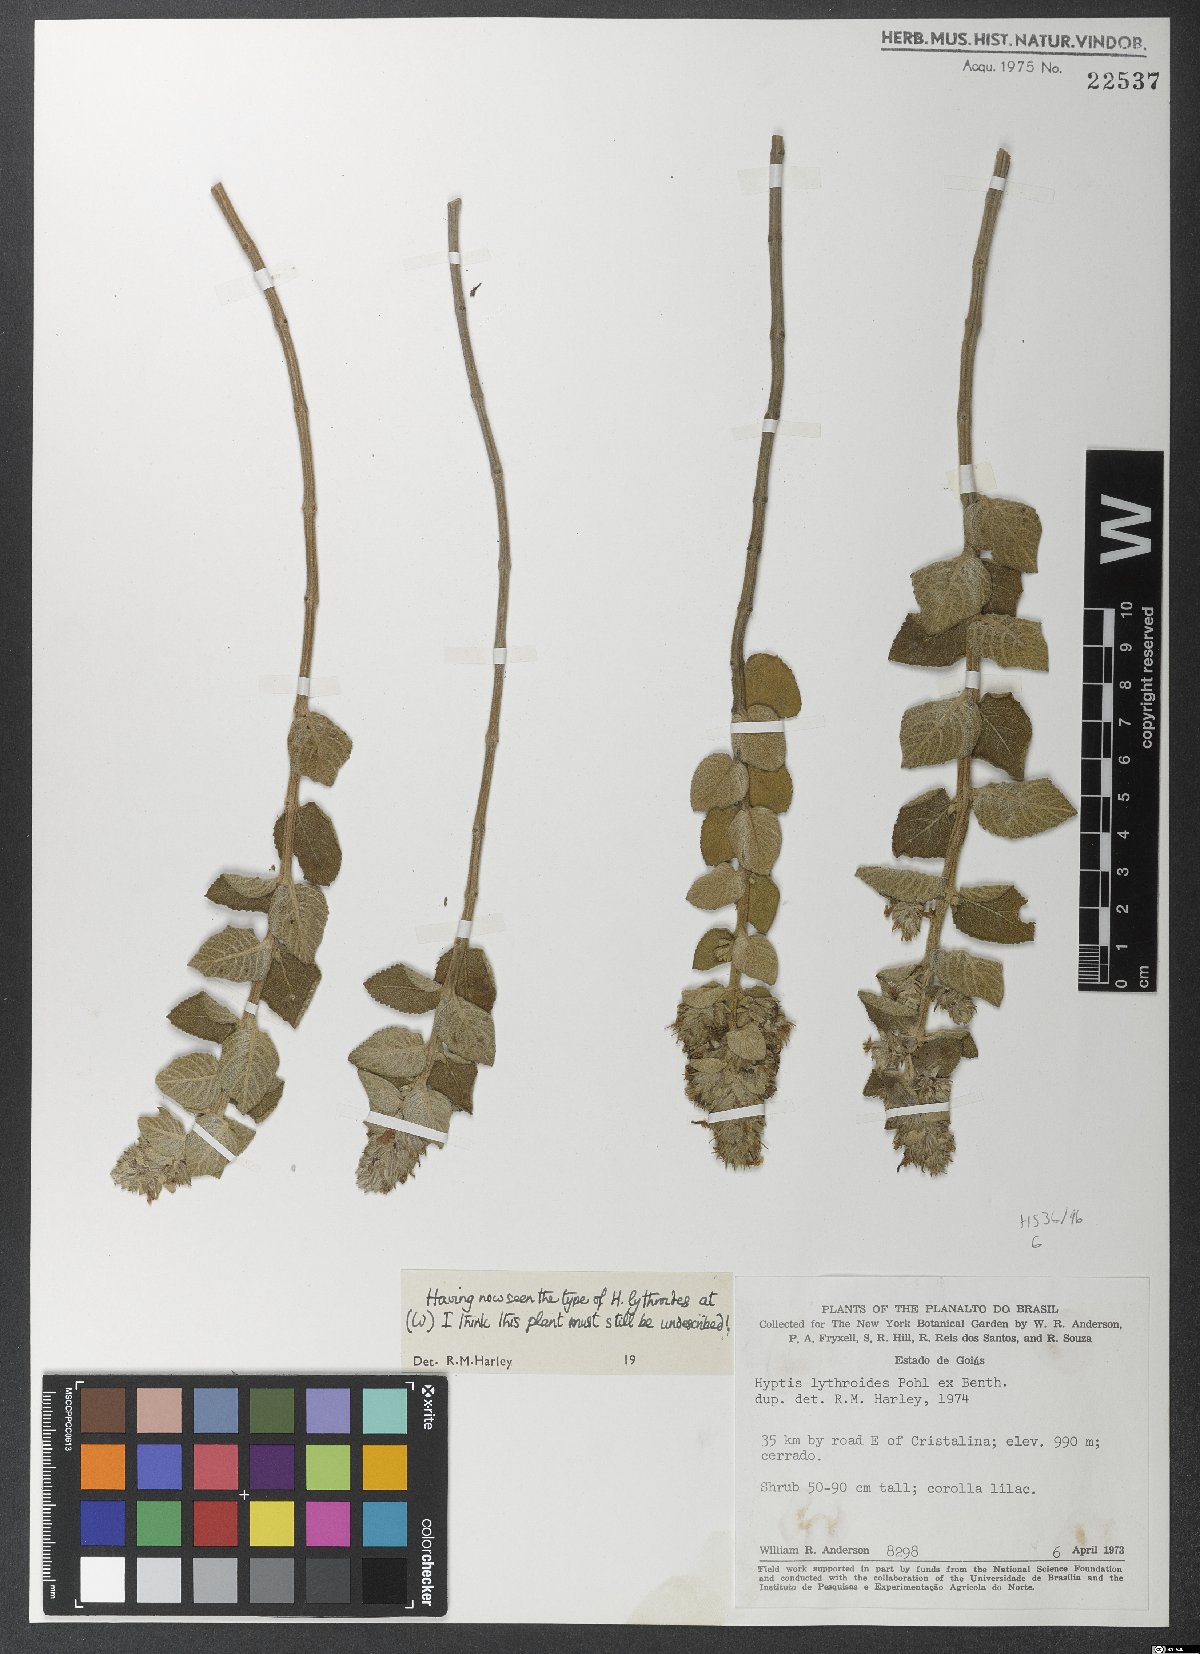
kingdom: Plantae
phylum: Tracheophyta
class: Magnoliopsida
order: Lamiales
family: Lamiaceae
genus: Oocephalus
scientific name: Oocephalus grazielae
